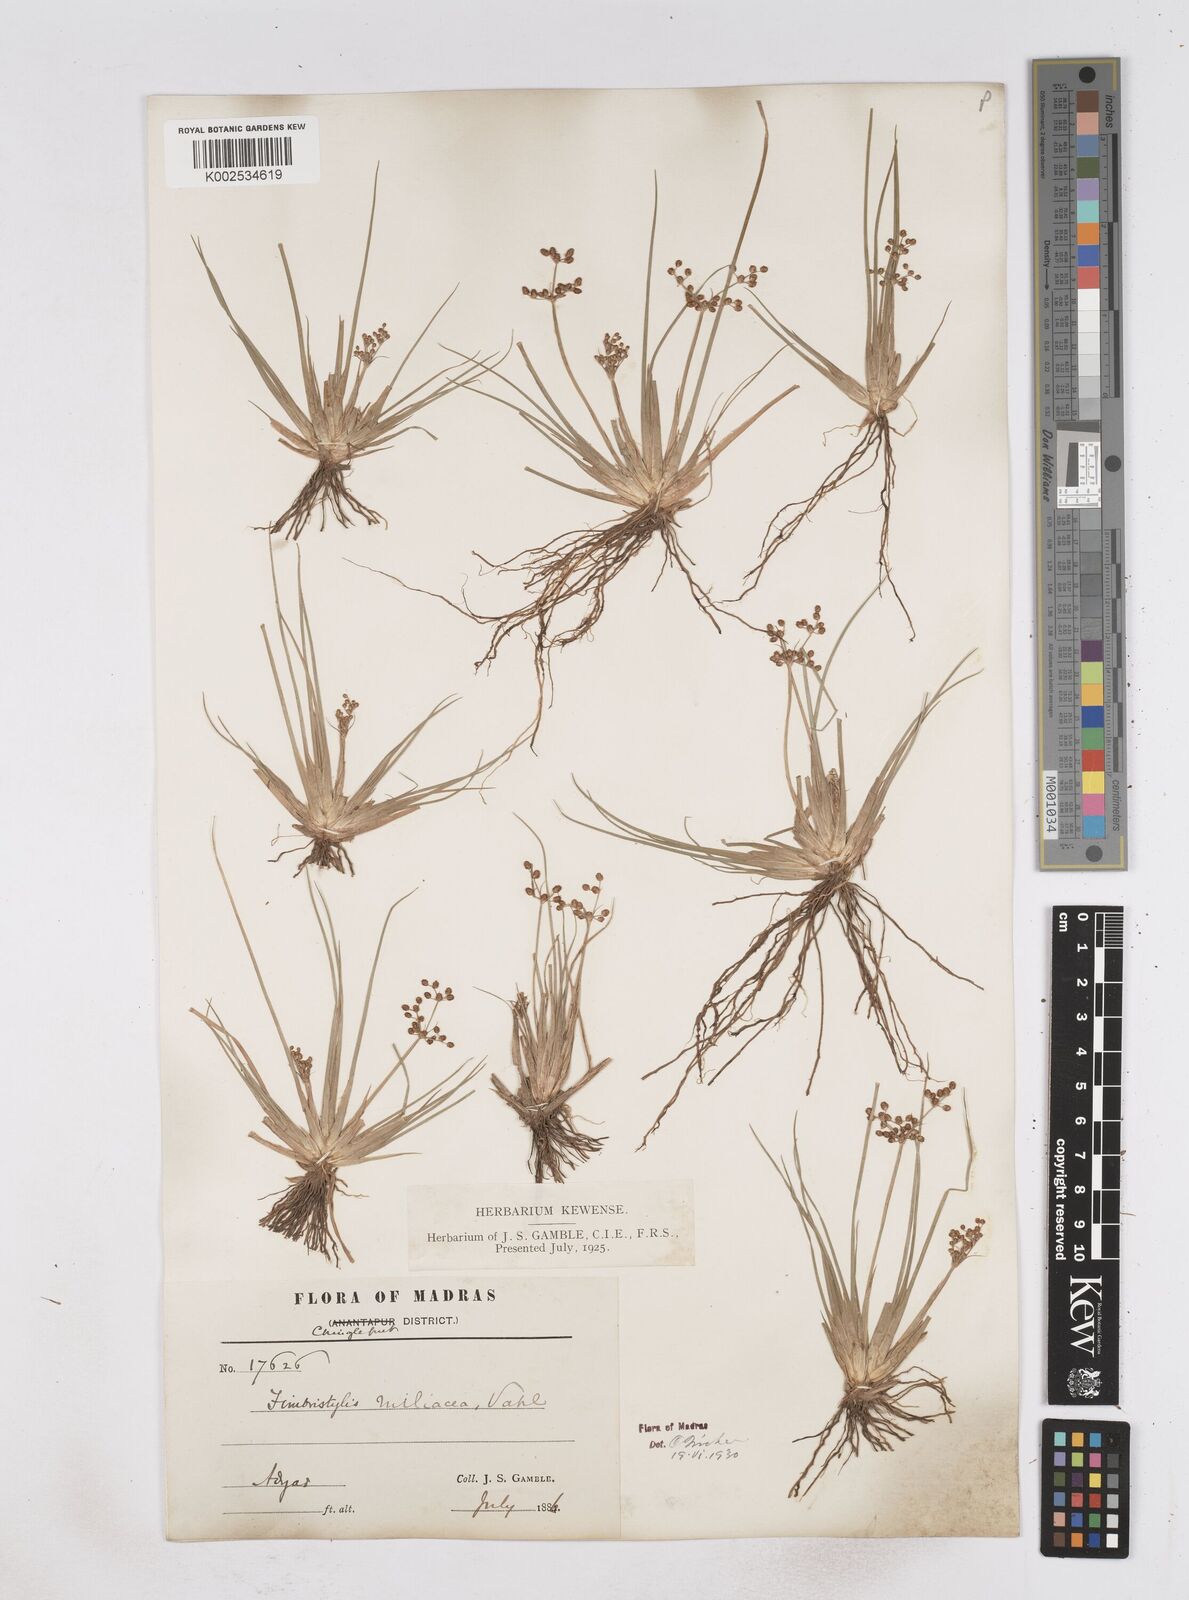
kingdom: Plantae
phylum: Tracheophyta
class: Liliopsida
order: Poales
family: Cyperaceae
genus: Fimbristylis
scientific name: Fimbristylis littoralis
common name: Fimbry
